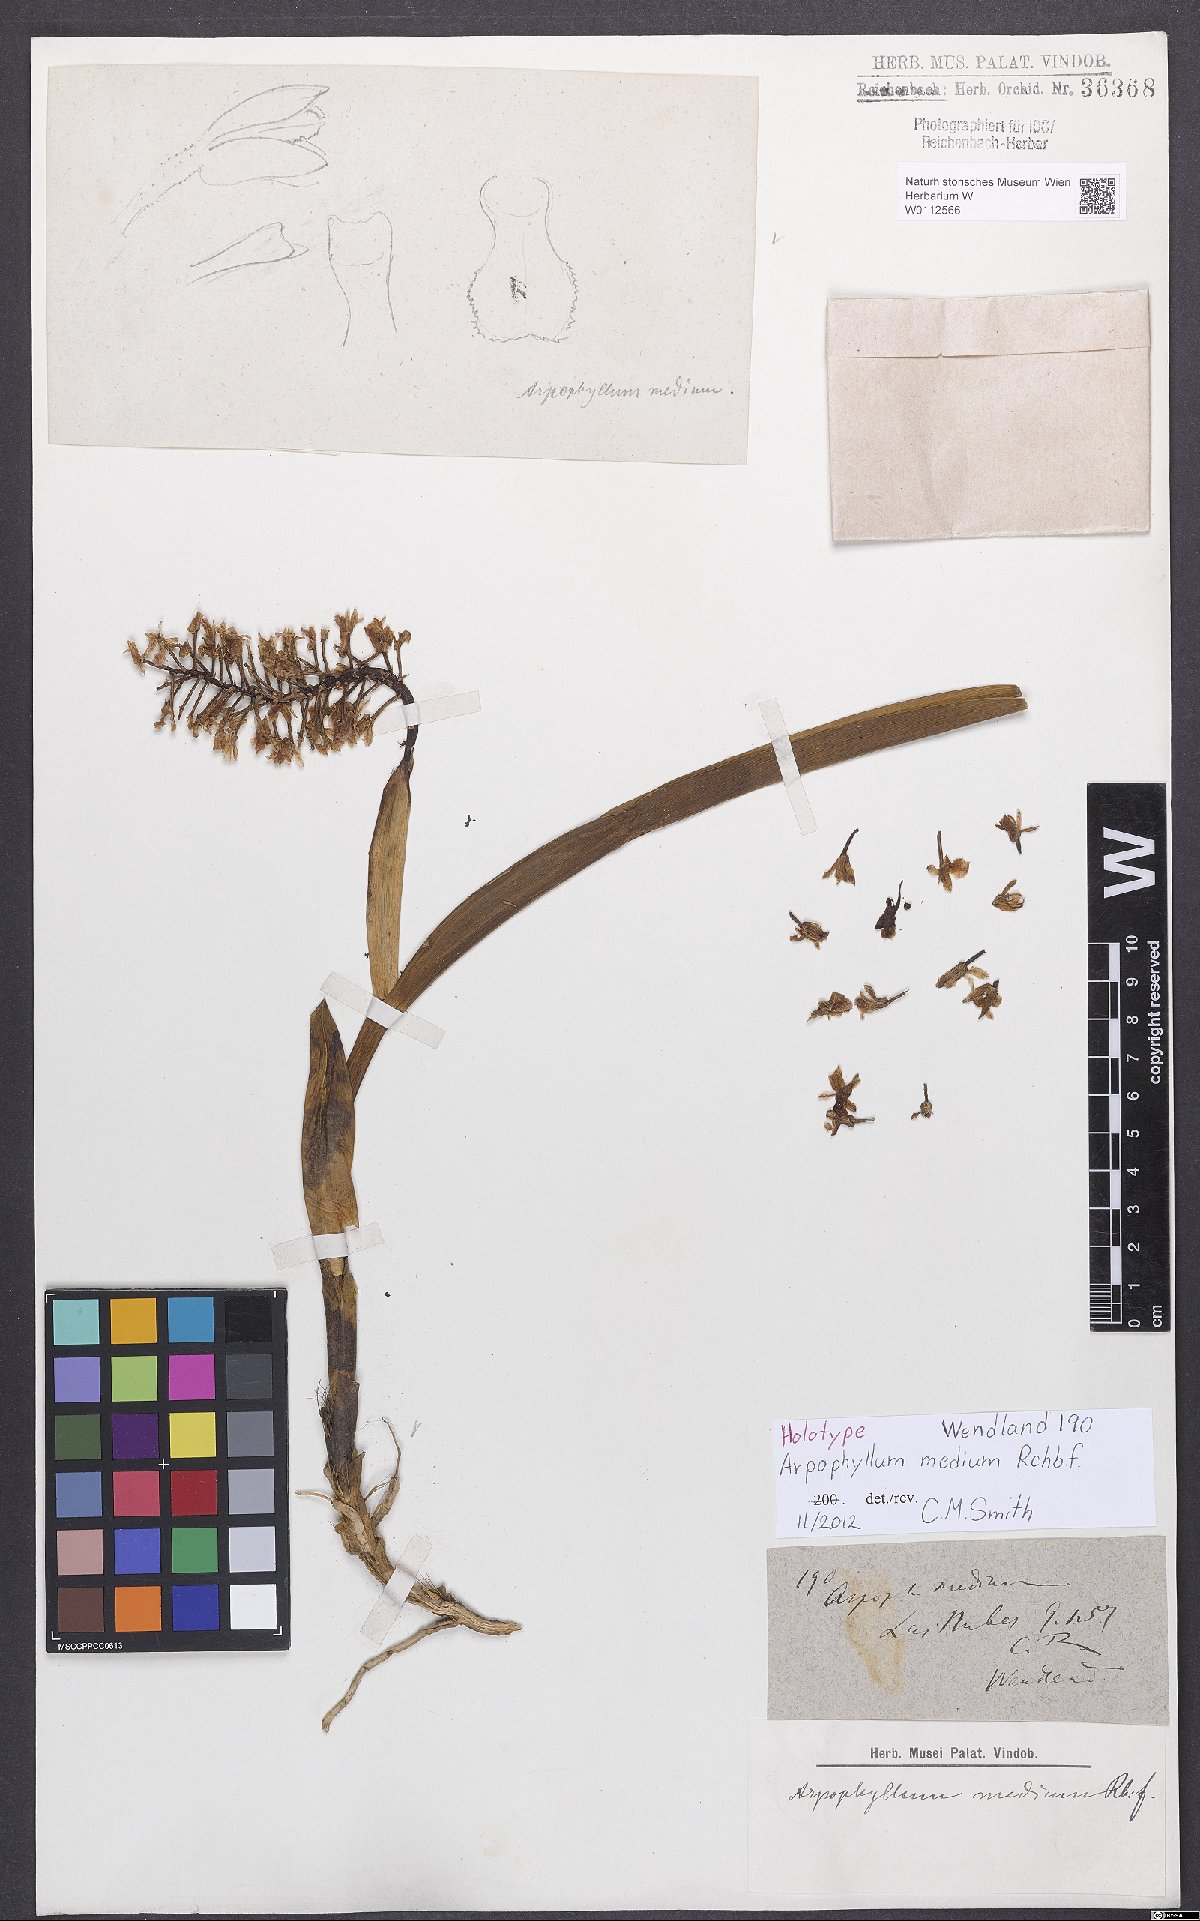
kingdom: Plantae
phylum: Tracheophyta
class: Liliopsida
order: Asparagales
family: Orchidaceae
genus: Arpophyllum
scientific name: Arpophyllum giganteum
